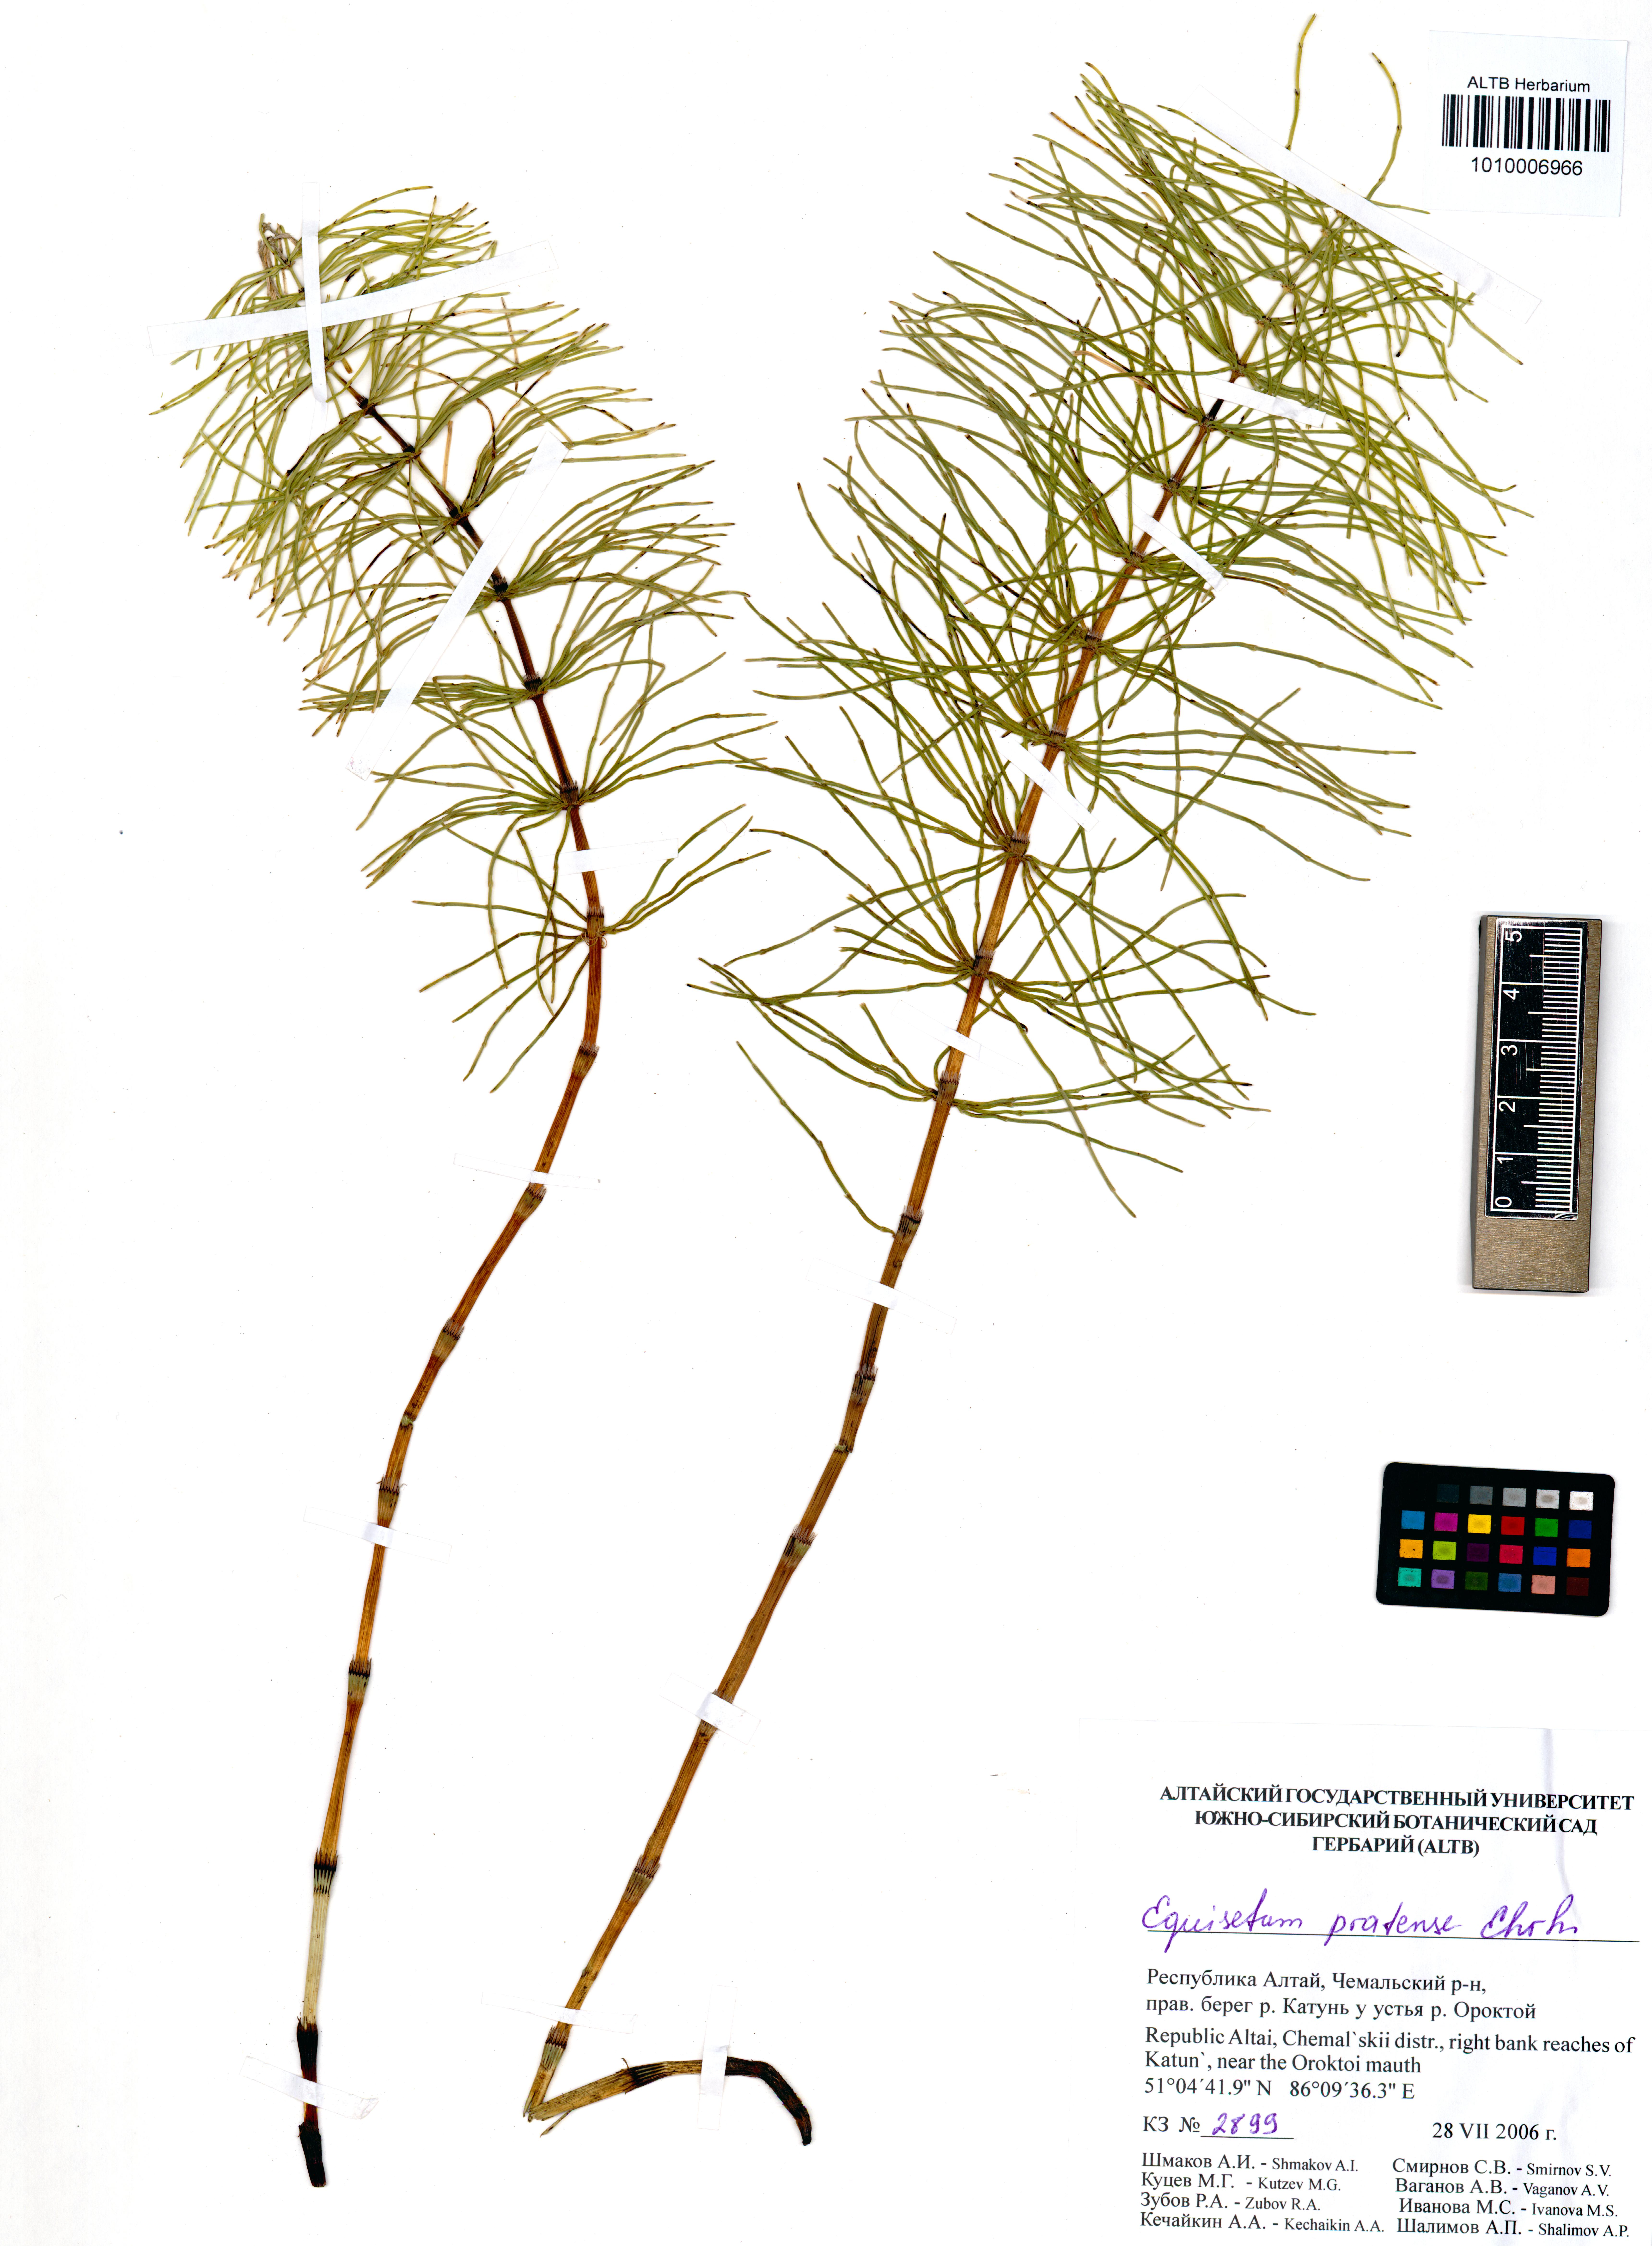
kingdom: Plantae
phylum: Tracheophyta
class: Polypodiopsida
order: Equisetales
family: Equisetaceae
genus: Equisetum
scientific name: Equisetum pratense
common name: Meadow horsetail
